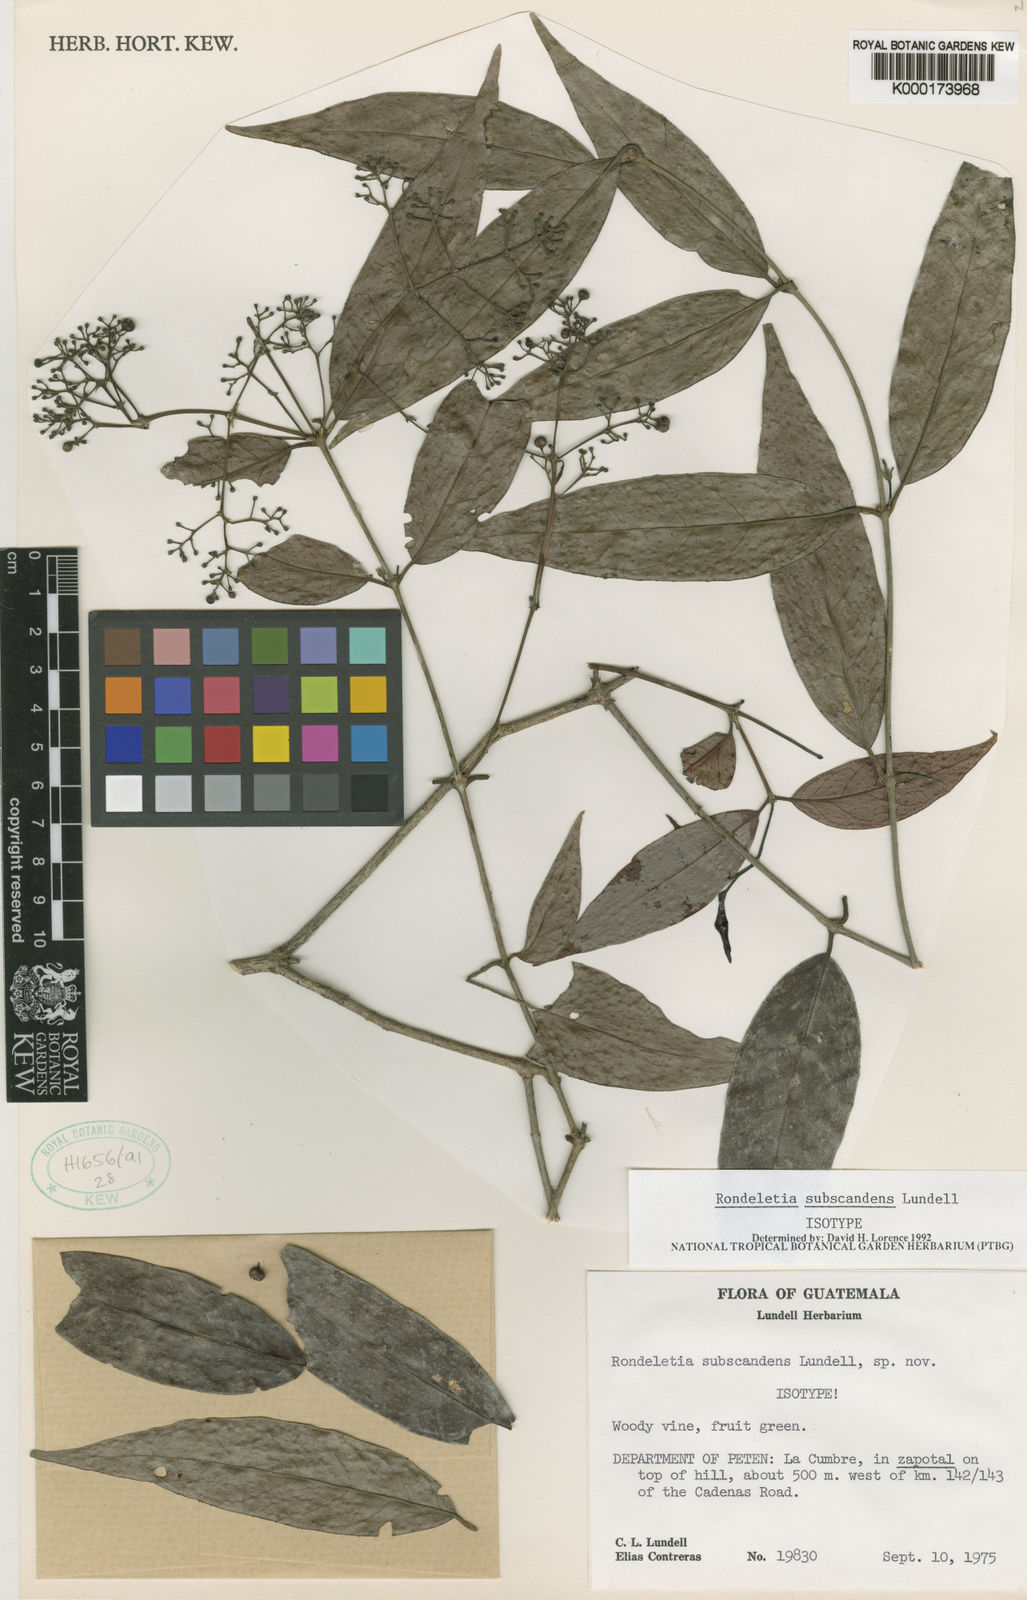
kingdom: Plantae
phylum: Tracheophyta
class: Magnoliopsida
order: Gentianales
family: Rubiaceae
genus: Rogiera
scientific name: Rogiera edwardsii
